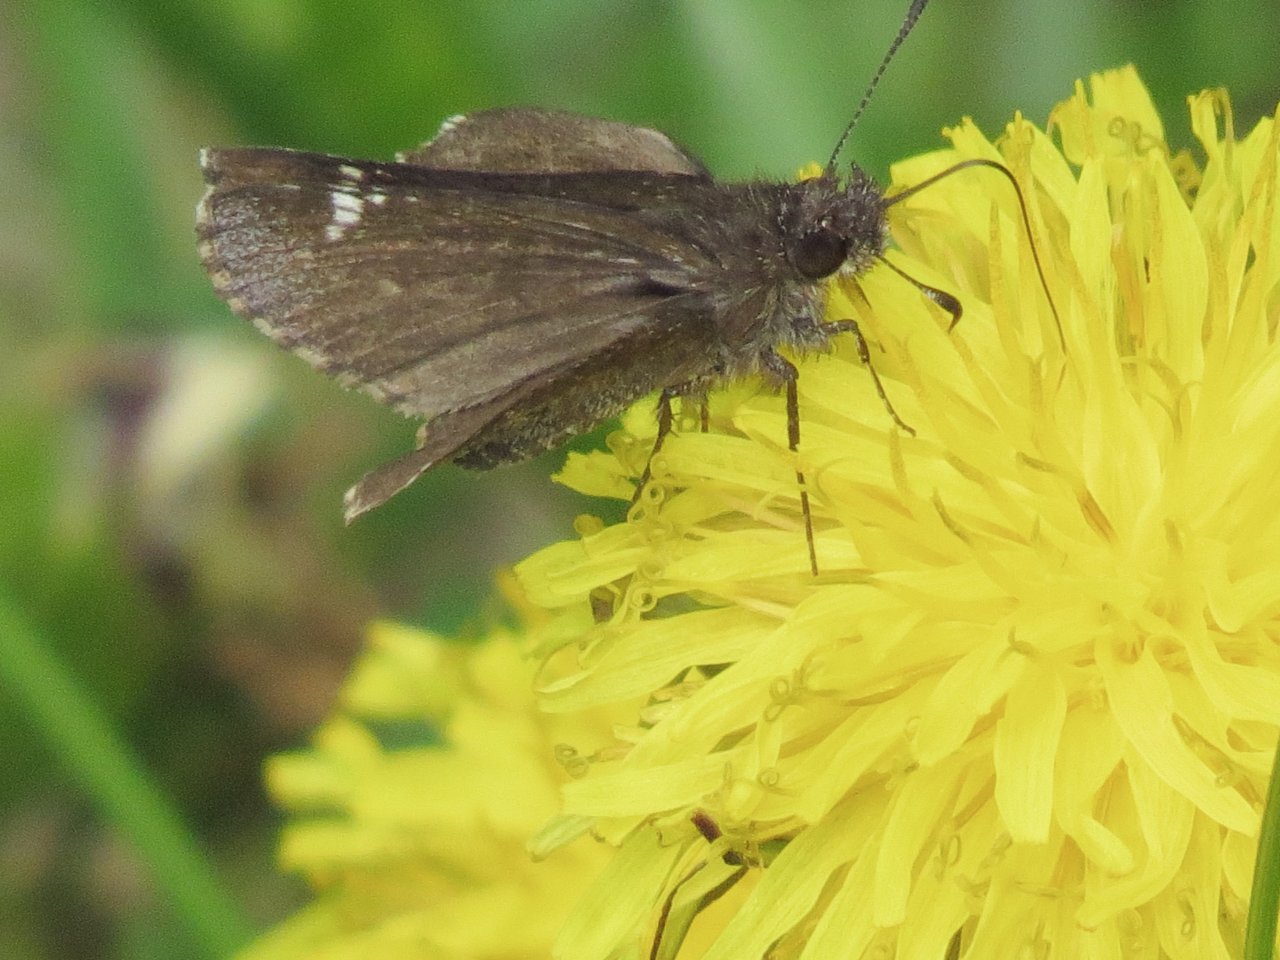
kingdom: Animalia
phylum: Arthropoda
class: Insecta
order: Lepidoptera
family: Hesperiidae
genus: Mastor
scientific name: Mastor vialis
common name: Common Roadside-Skipper
